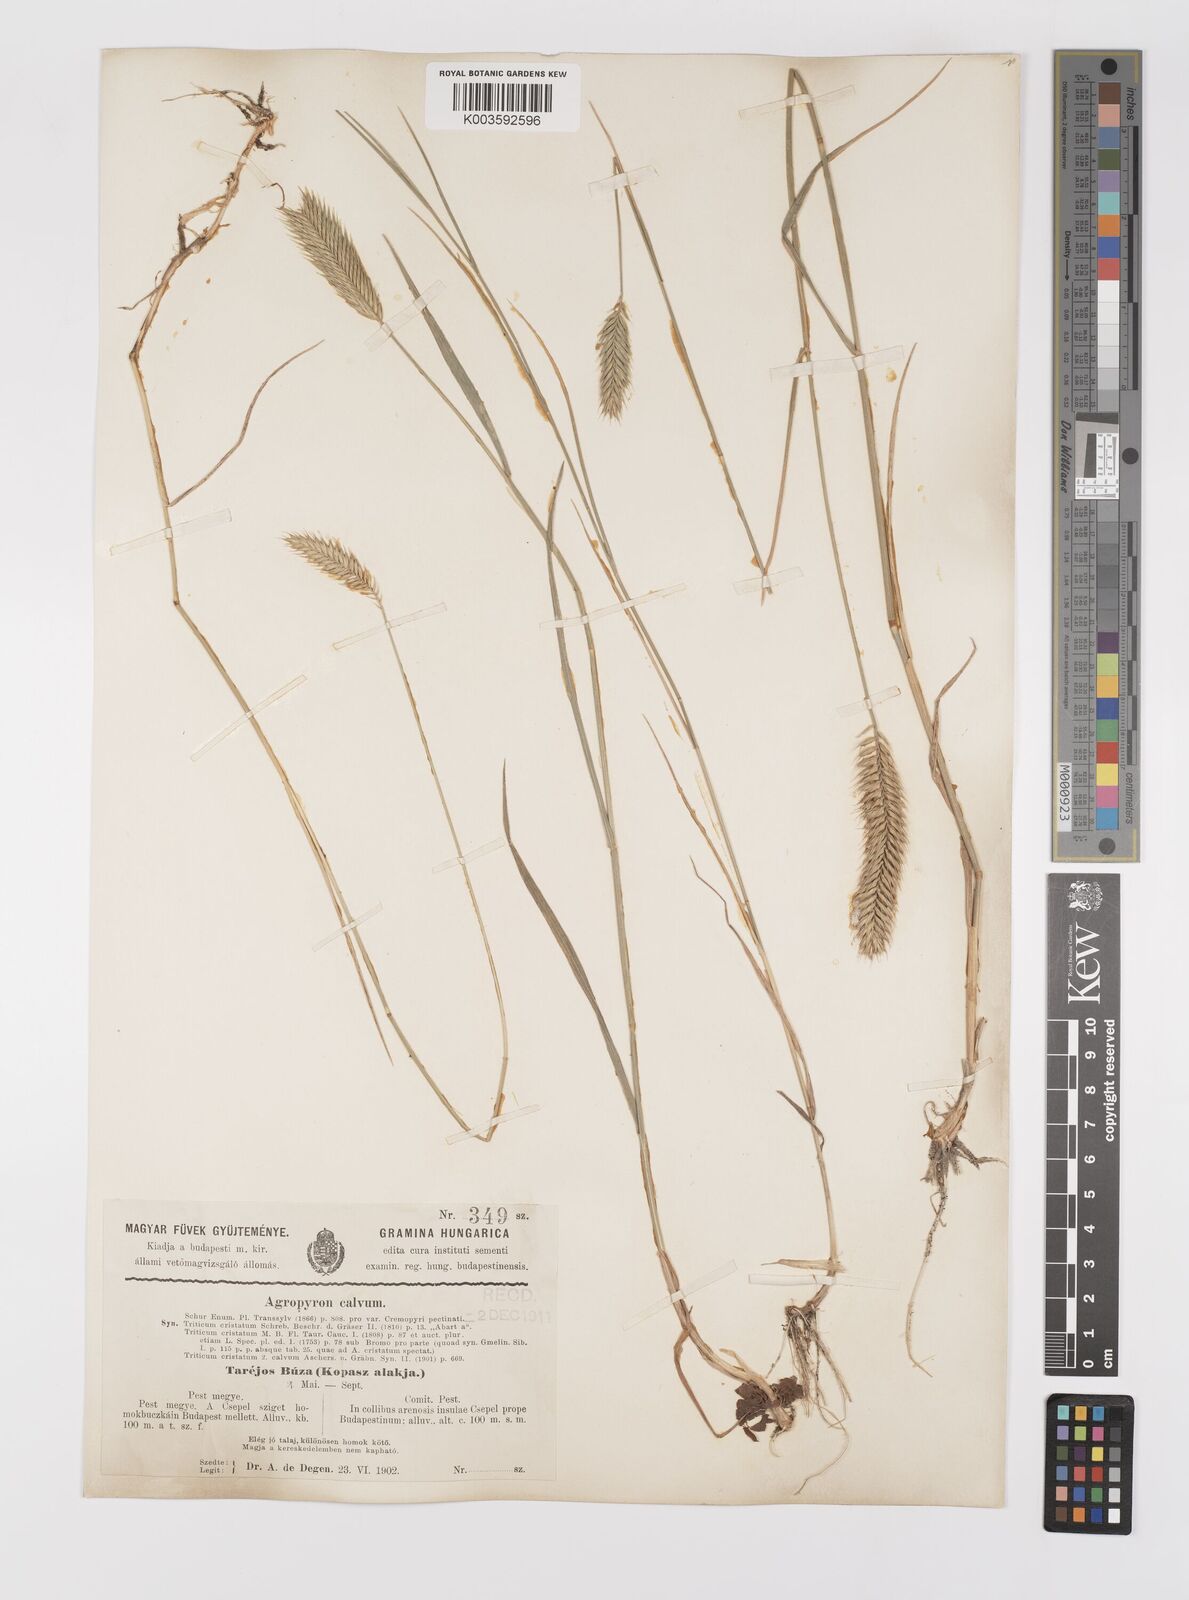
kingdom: Plantae
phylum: Tracheophyta
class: Liliopsida
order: Poales
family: Poaceae
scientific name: Poaceae
